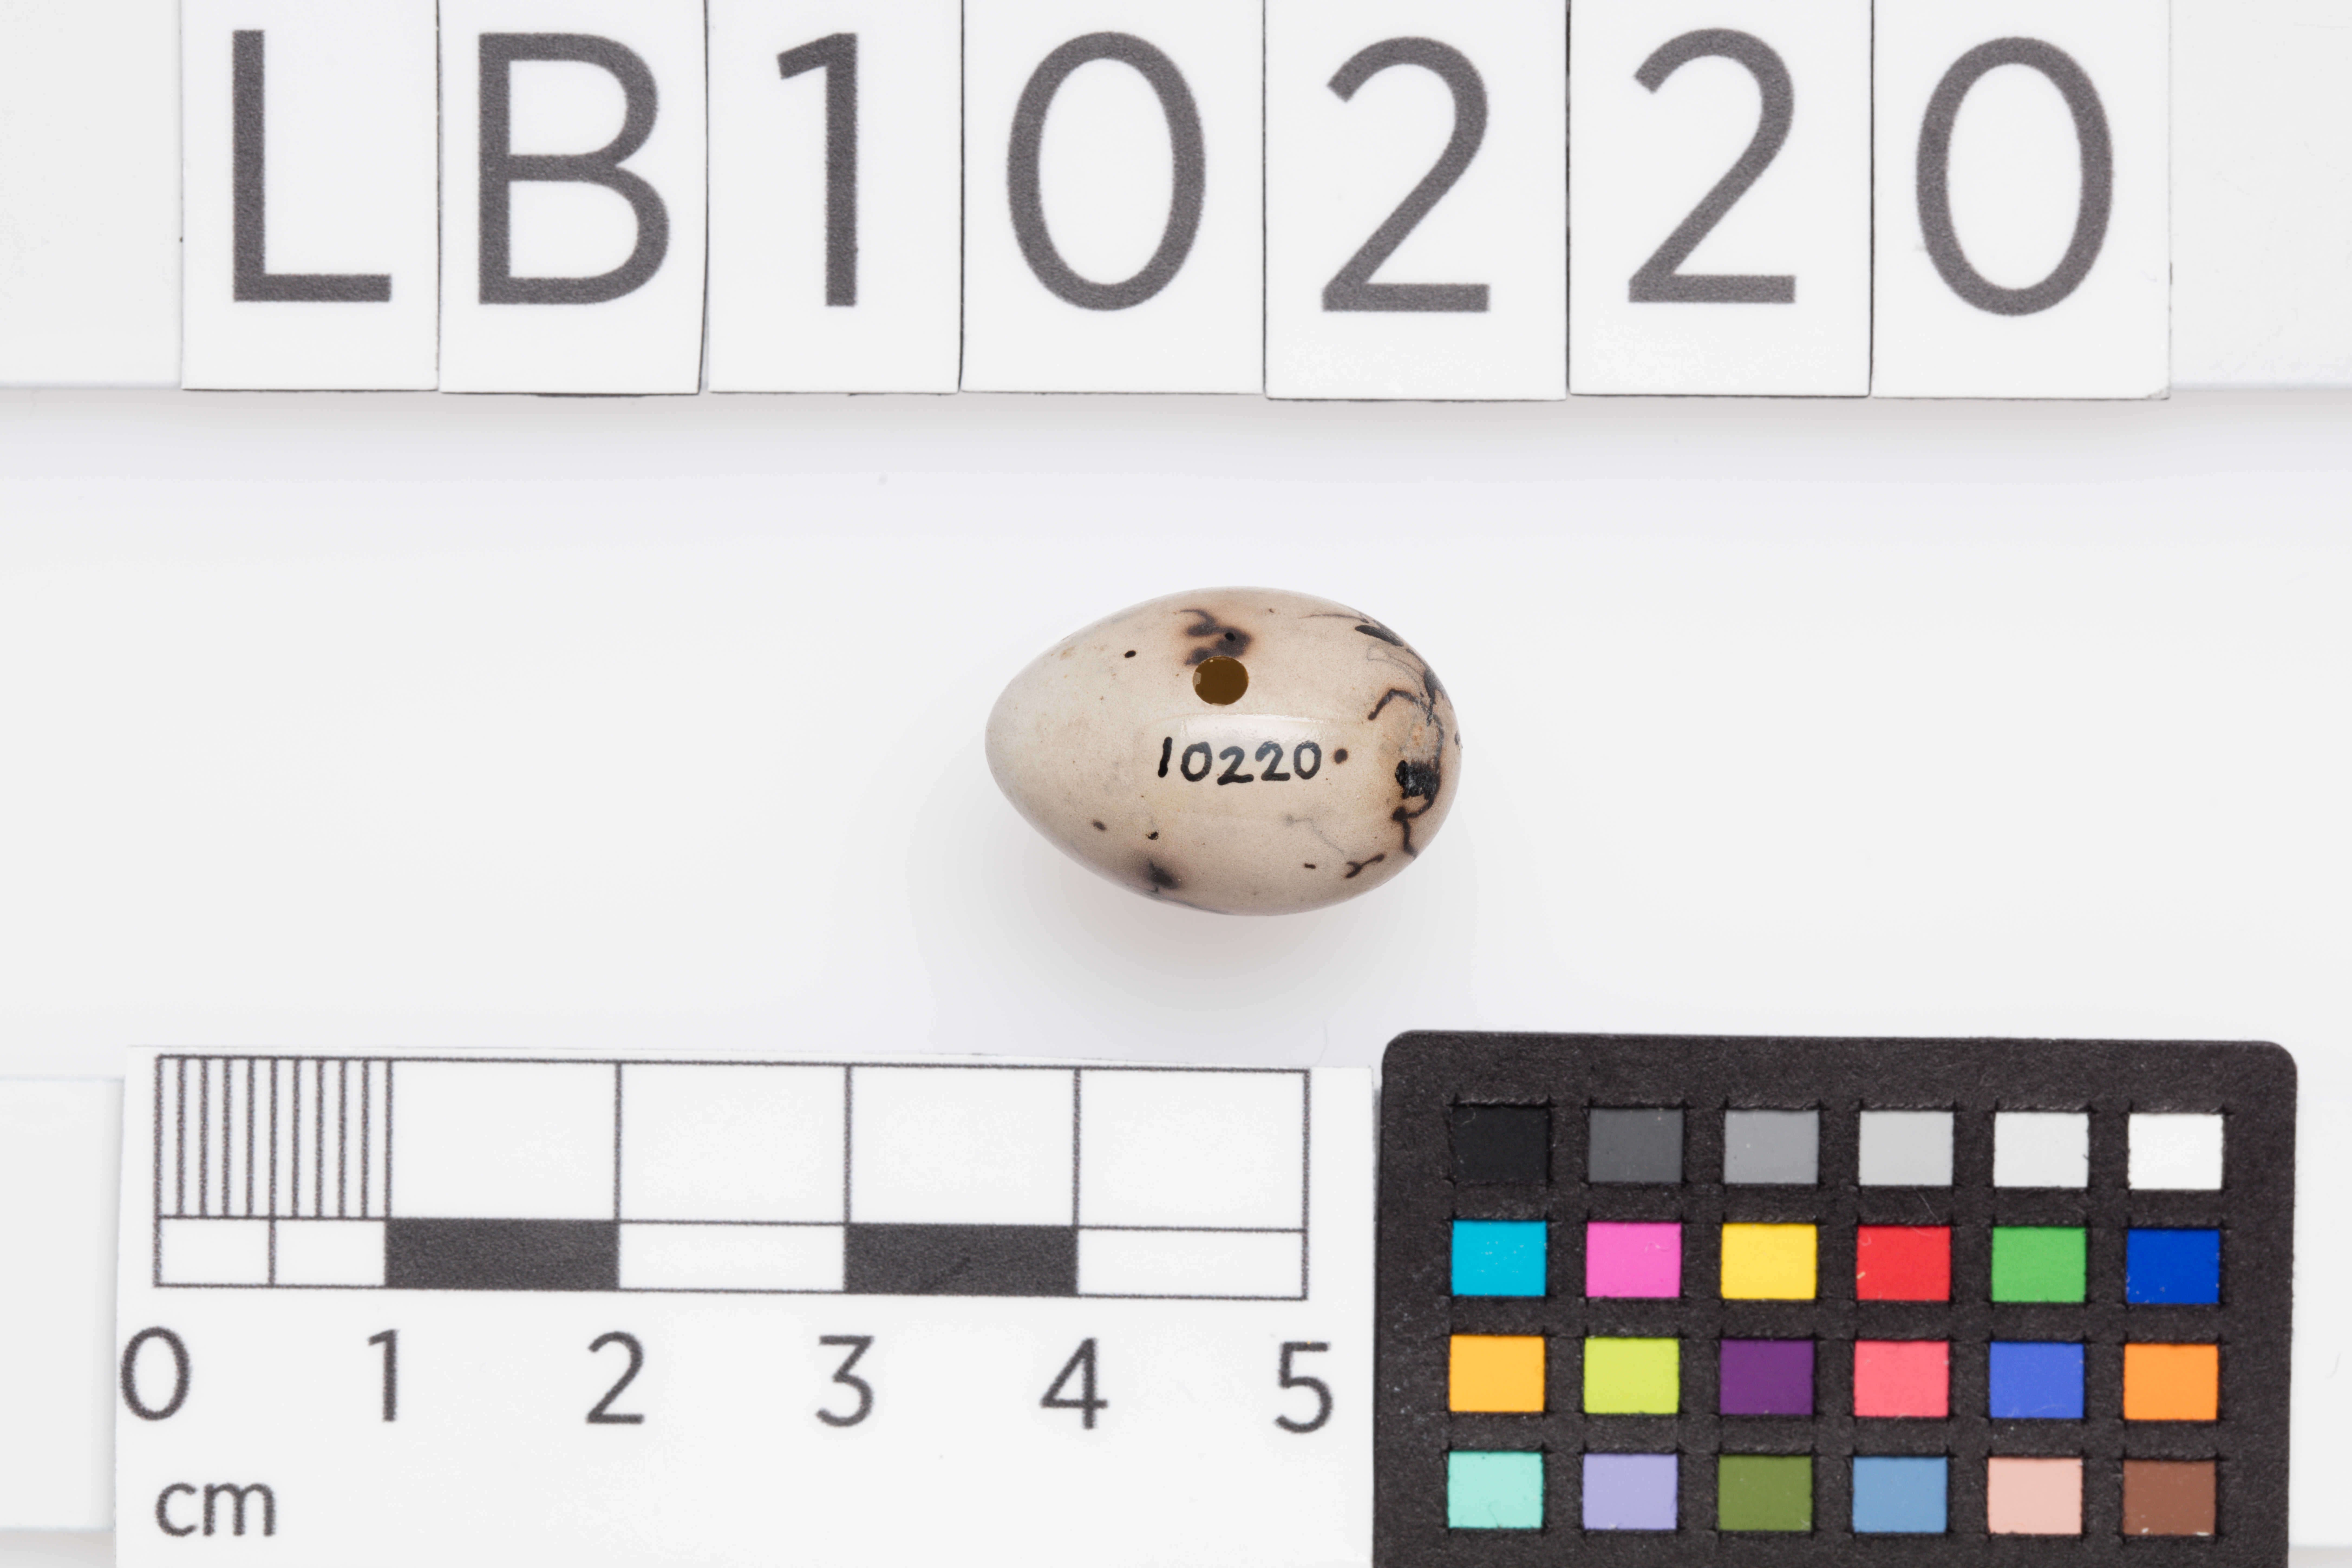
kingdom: Animalia
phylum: Chordata
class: Aves
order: Passeriformes
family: Emberizidae
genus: Emberiza
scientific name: Emberiza schoeniclus
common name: Reed bunting
